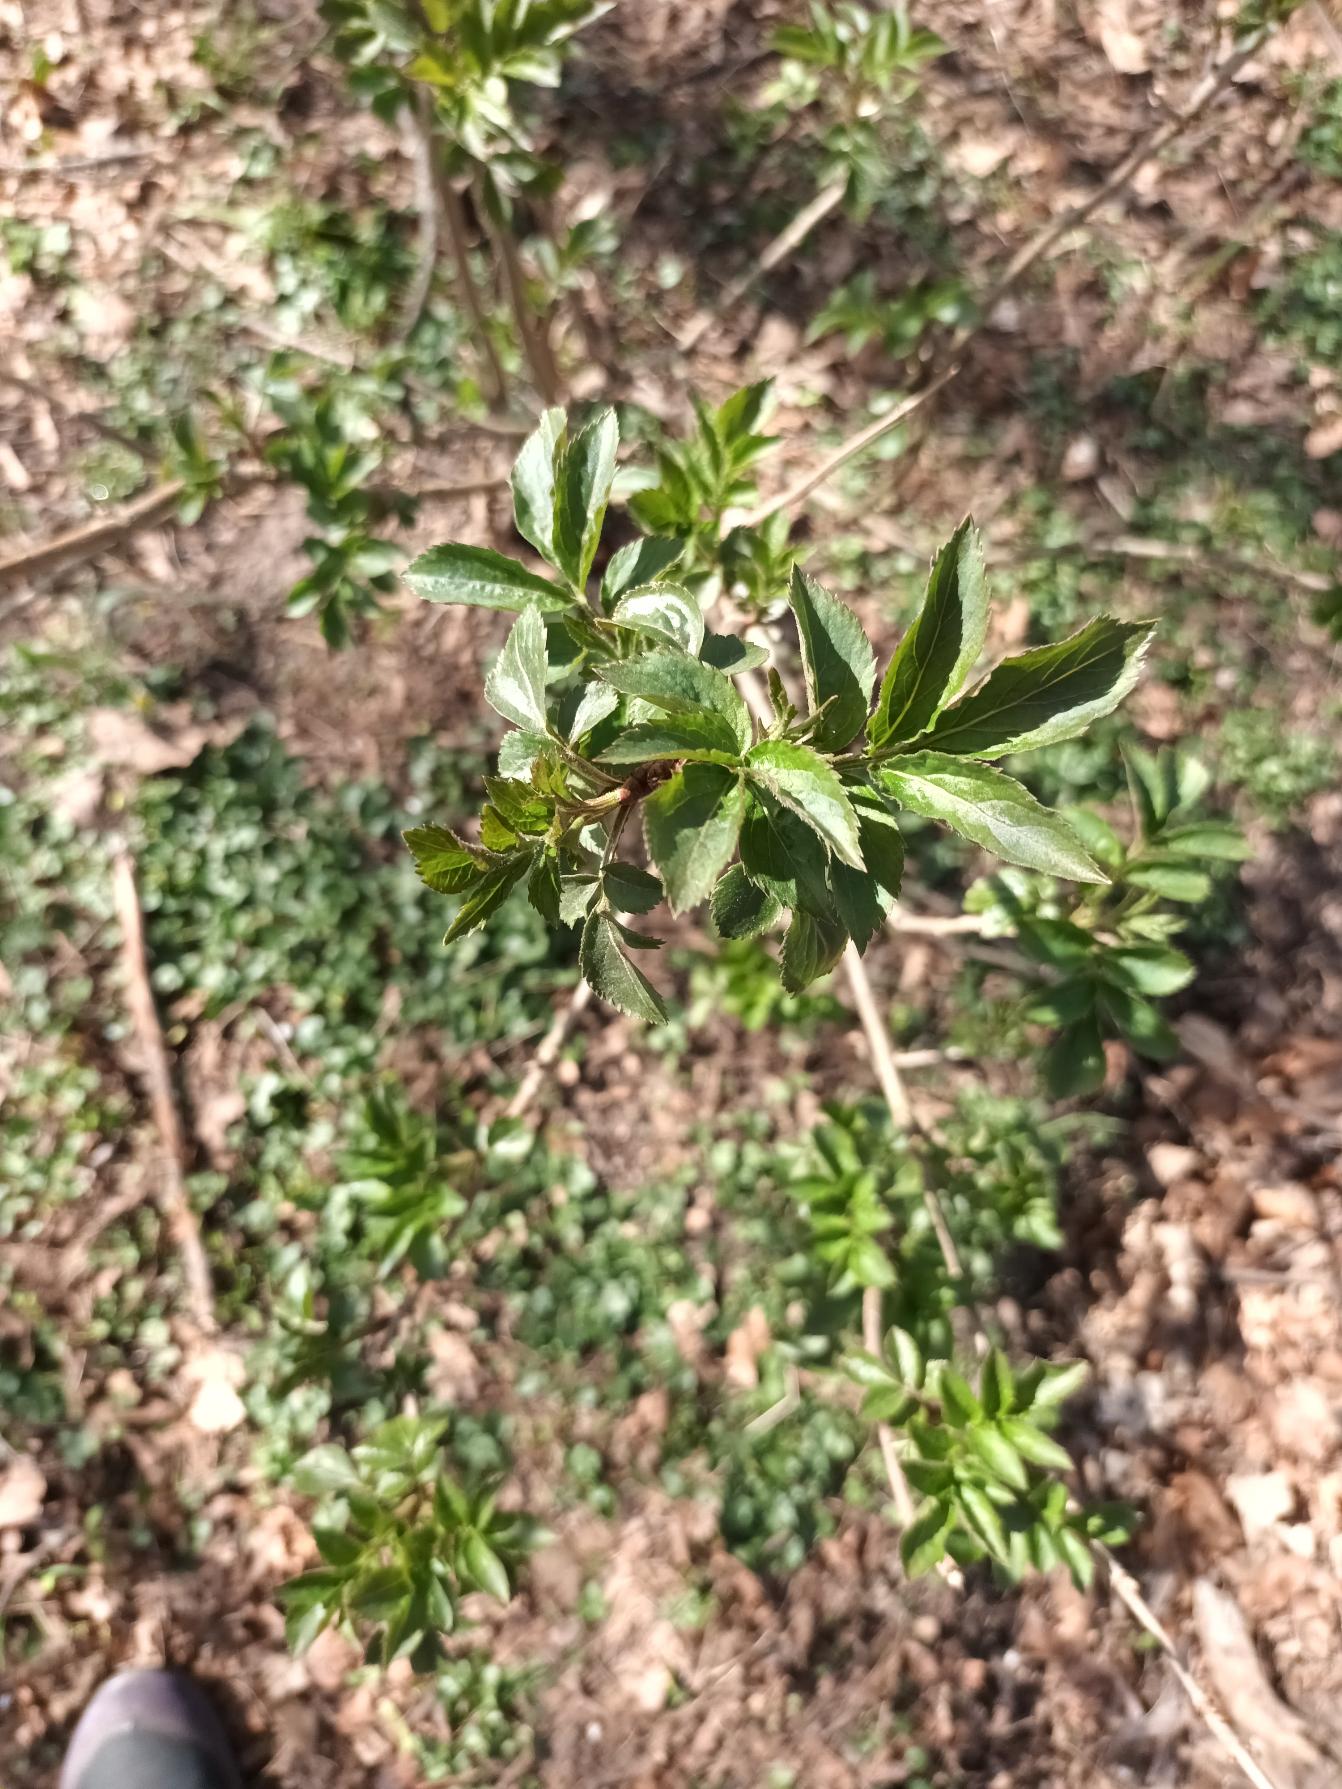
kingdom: Plantae
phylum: Tracheophyta
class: Magnoliopsida
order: Dipsacales
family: Viburnaceae
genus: Sambucus
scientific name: Sambucus nigra
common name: Almindelig hyld
